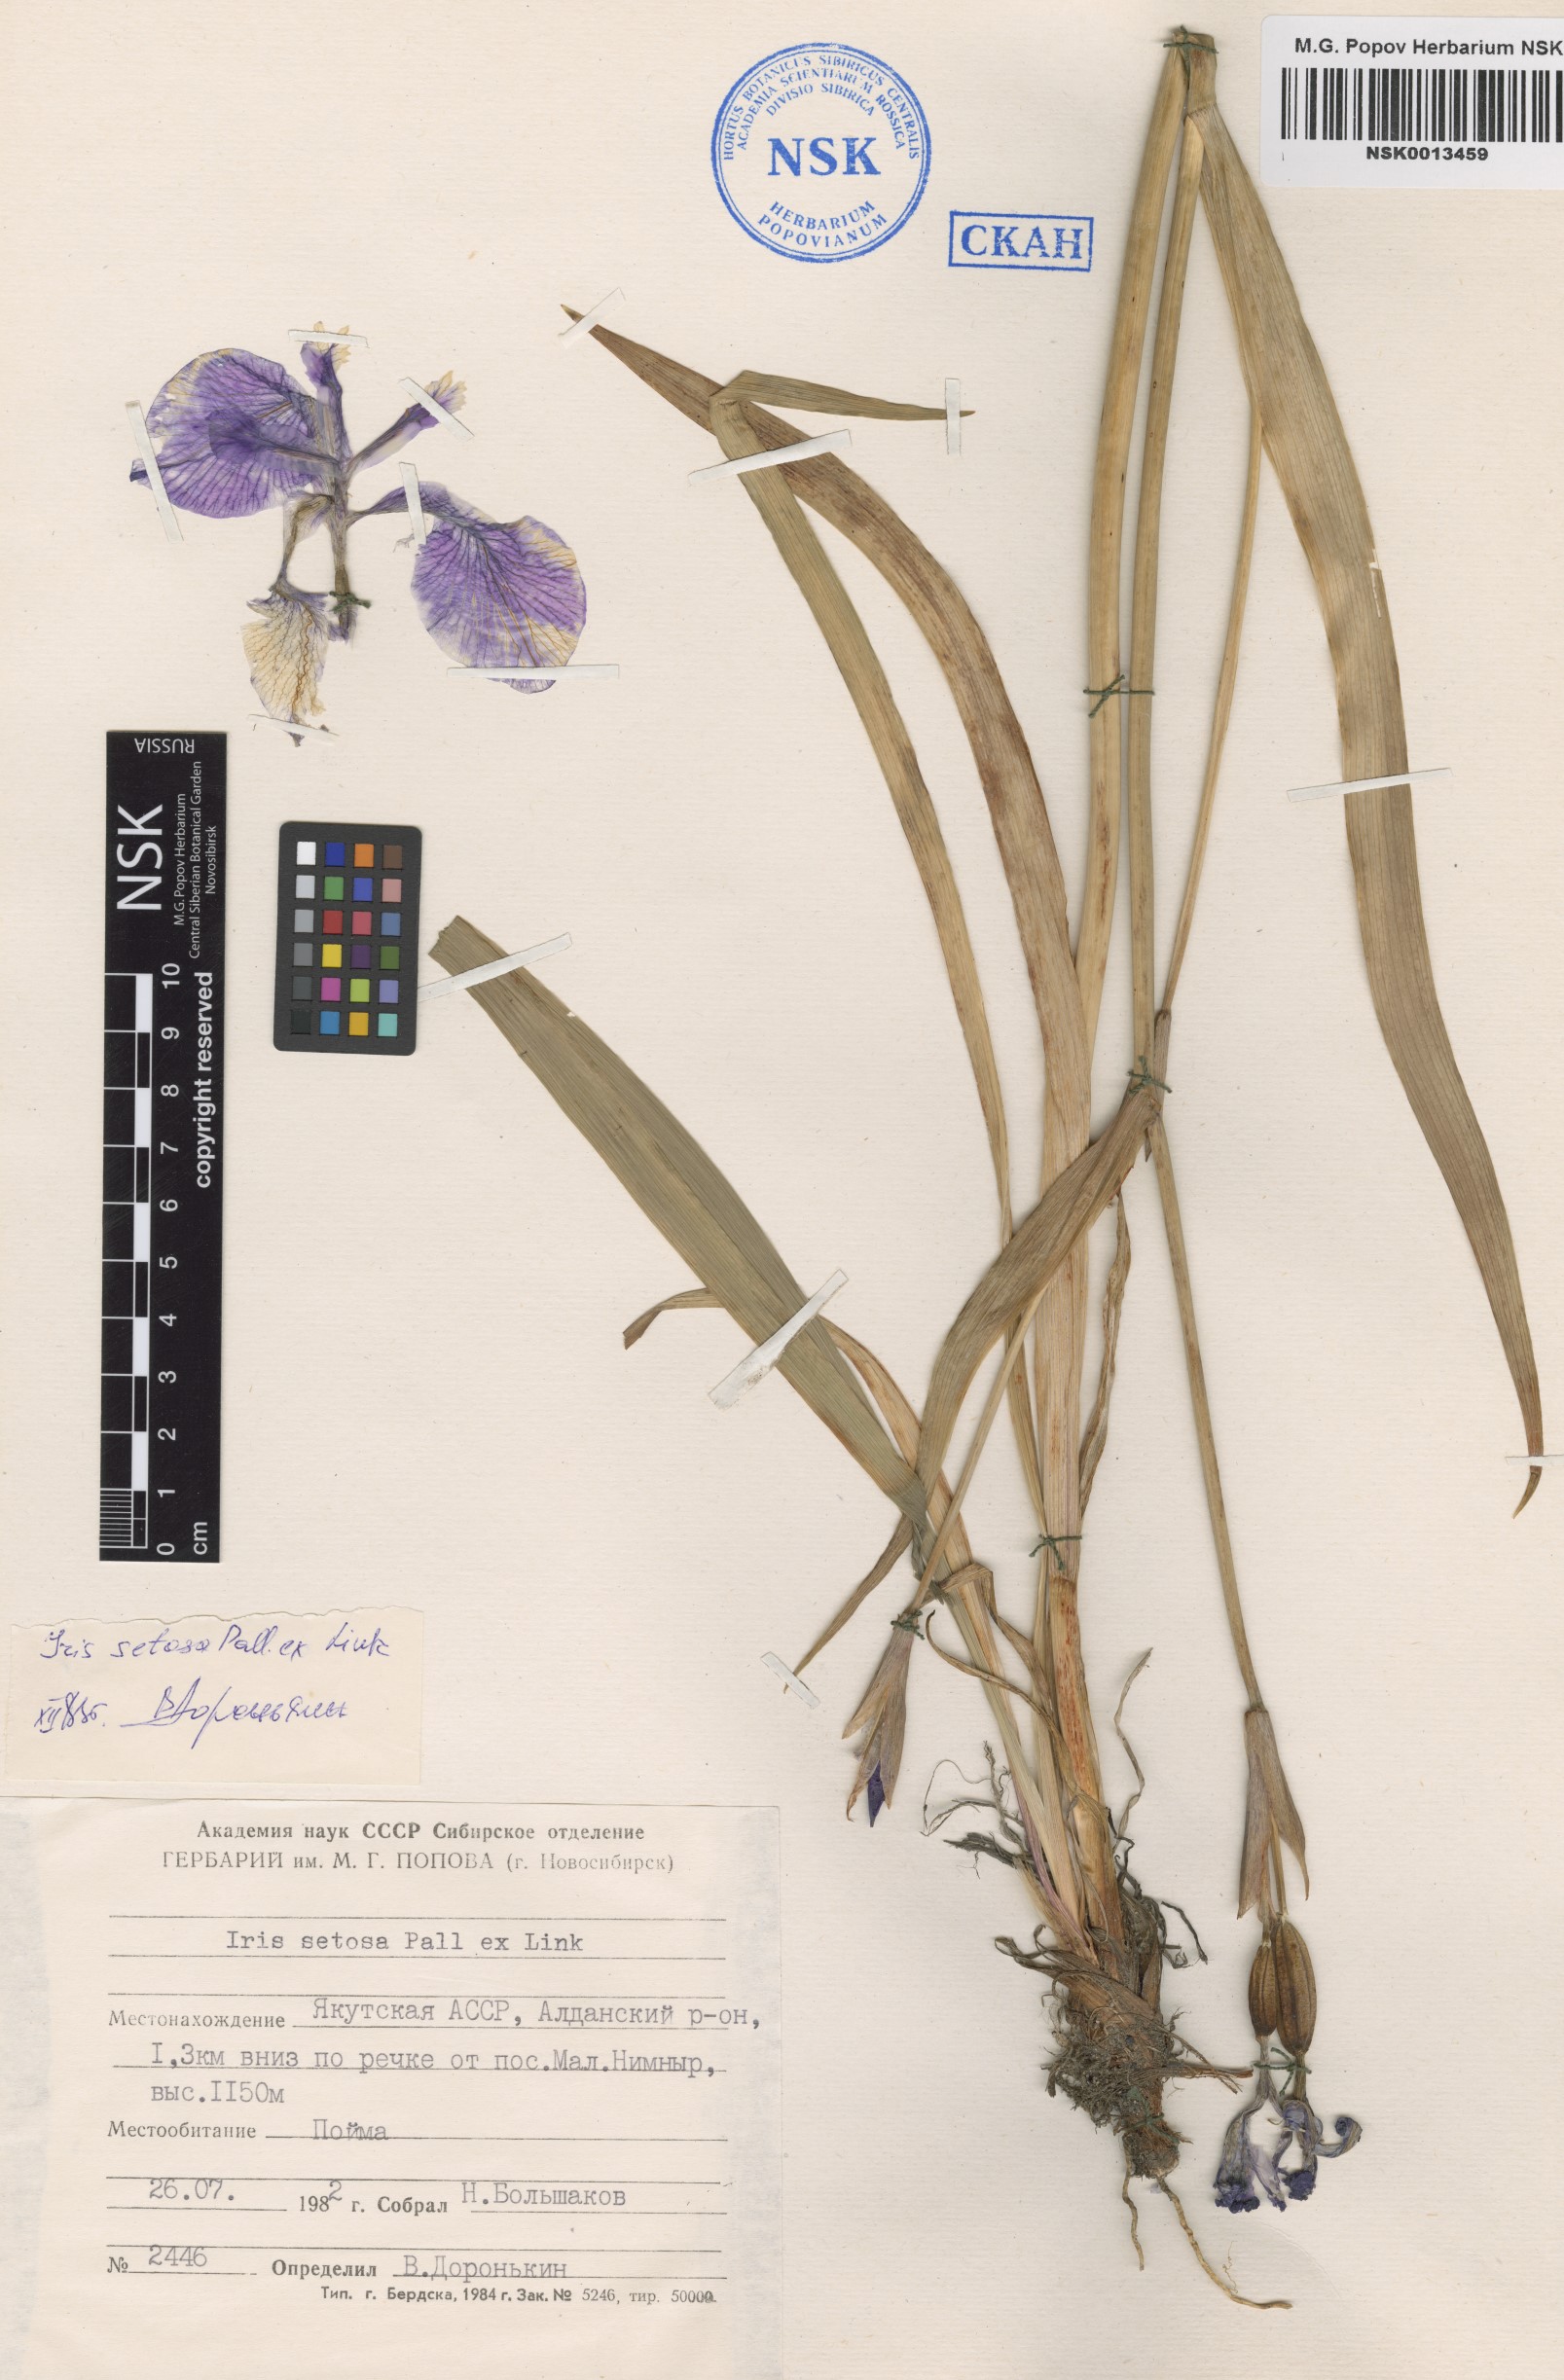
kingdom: Plantae
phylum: Tracheophyta
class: Liliopsida
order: Asparagales
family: Iridaceae
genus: Iris
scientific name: Iris setosa
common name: Arctic blue flag
